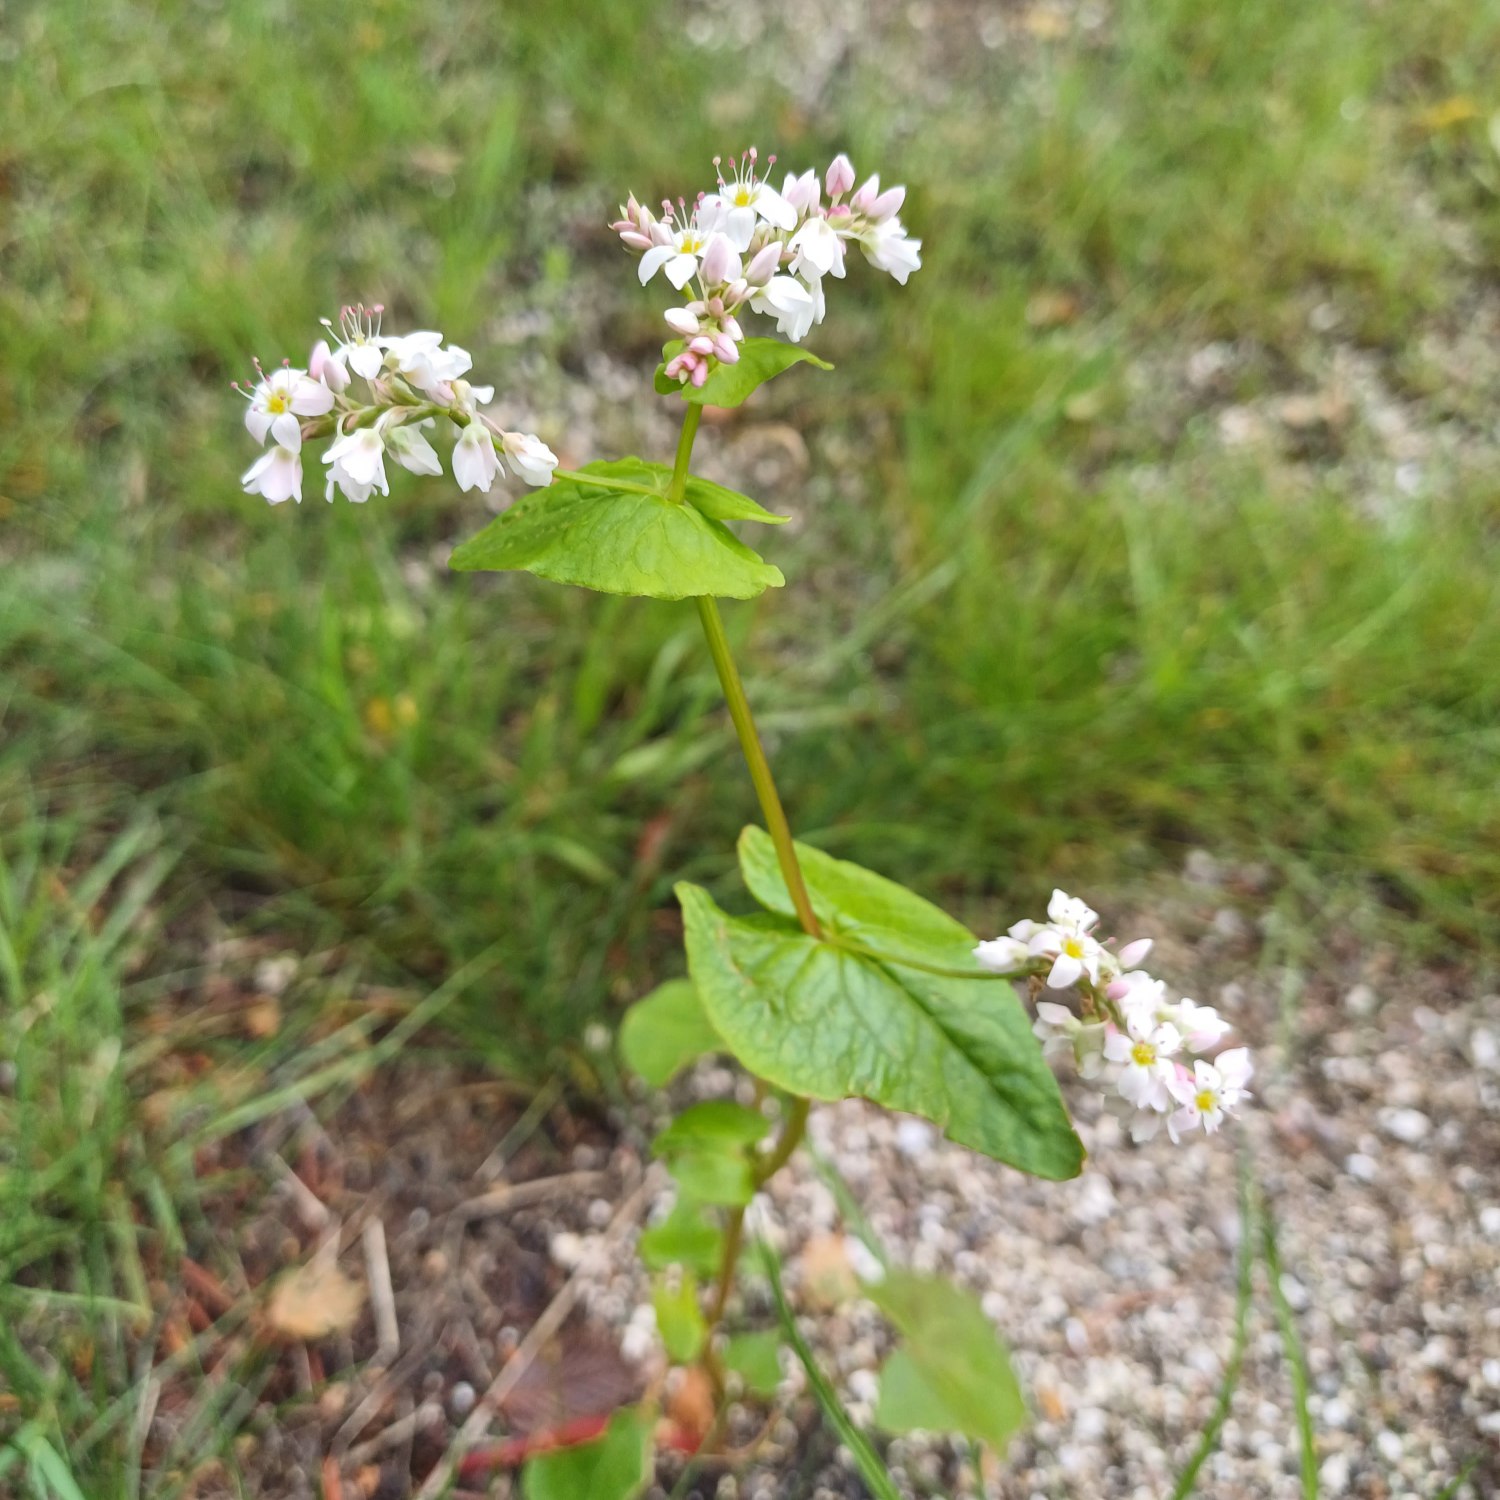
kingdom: Plantae
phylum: Tracheophyta
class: Magnoliopsida
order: Caryophyllales
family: Polygonaceae
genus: Fagopyrum
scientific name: Fagopyrum esculentum
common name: Almindelig boghvede
